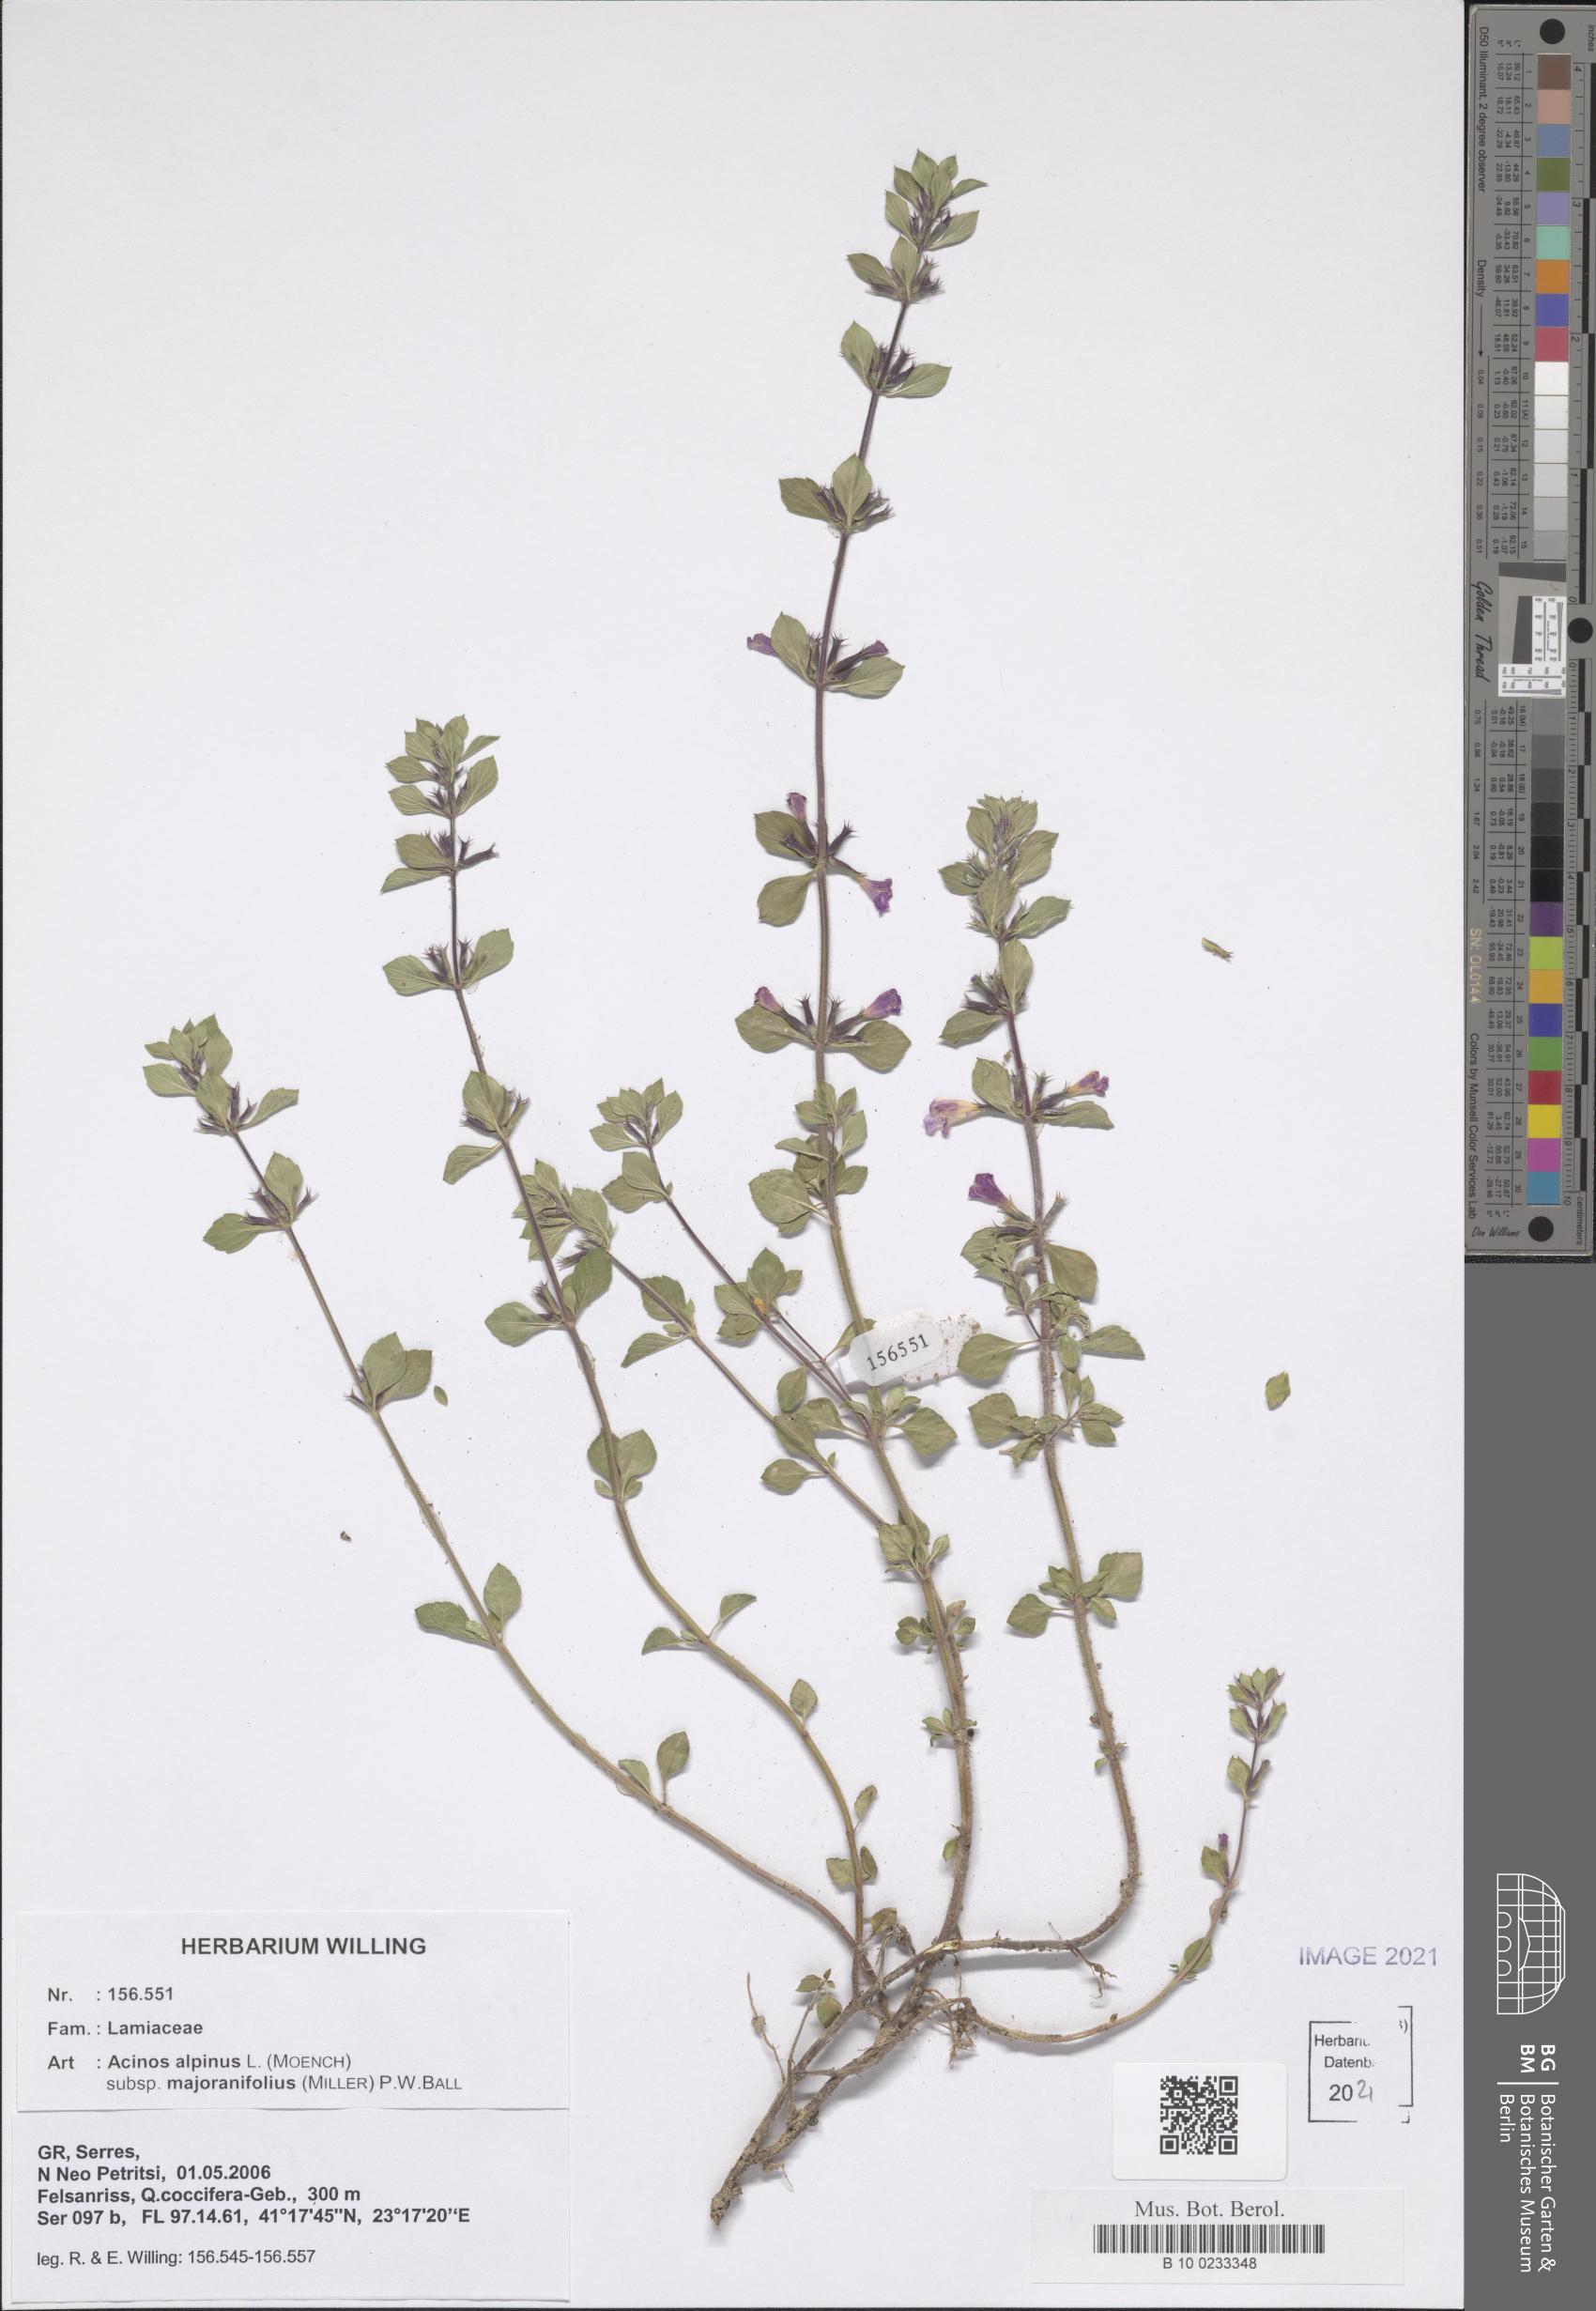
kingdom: Plantae
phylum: Tracheophyta
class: Magnoliopsida
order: Lamiales
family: Lamiaceae
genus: Clinopodium
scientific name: Clinopodium alpinum
